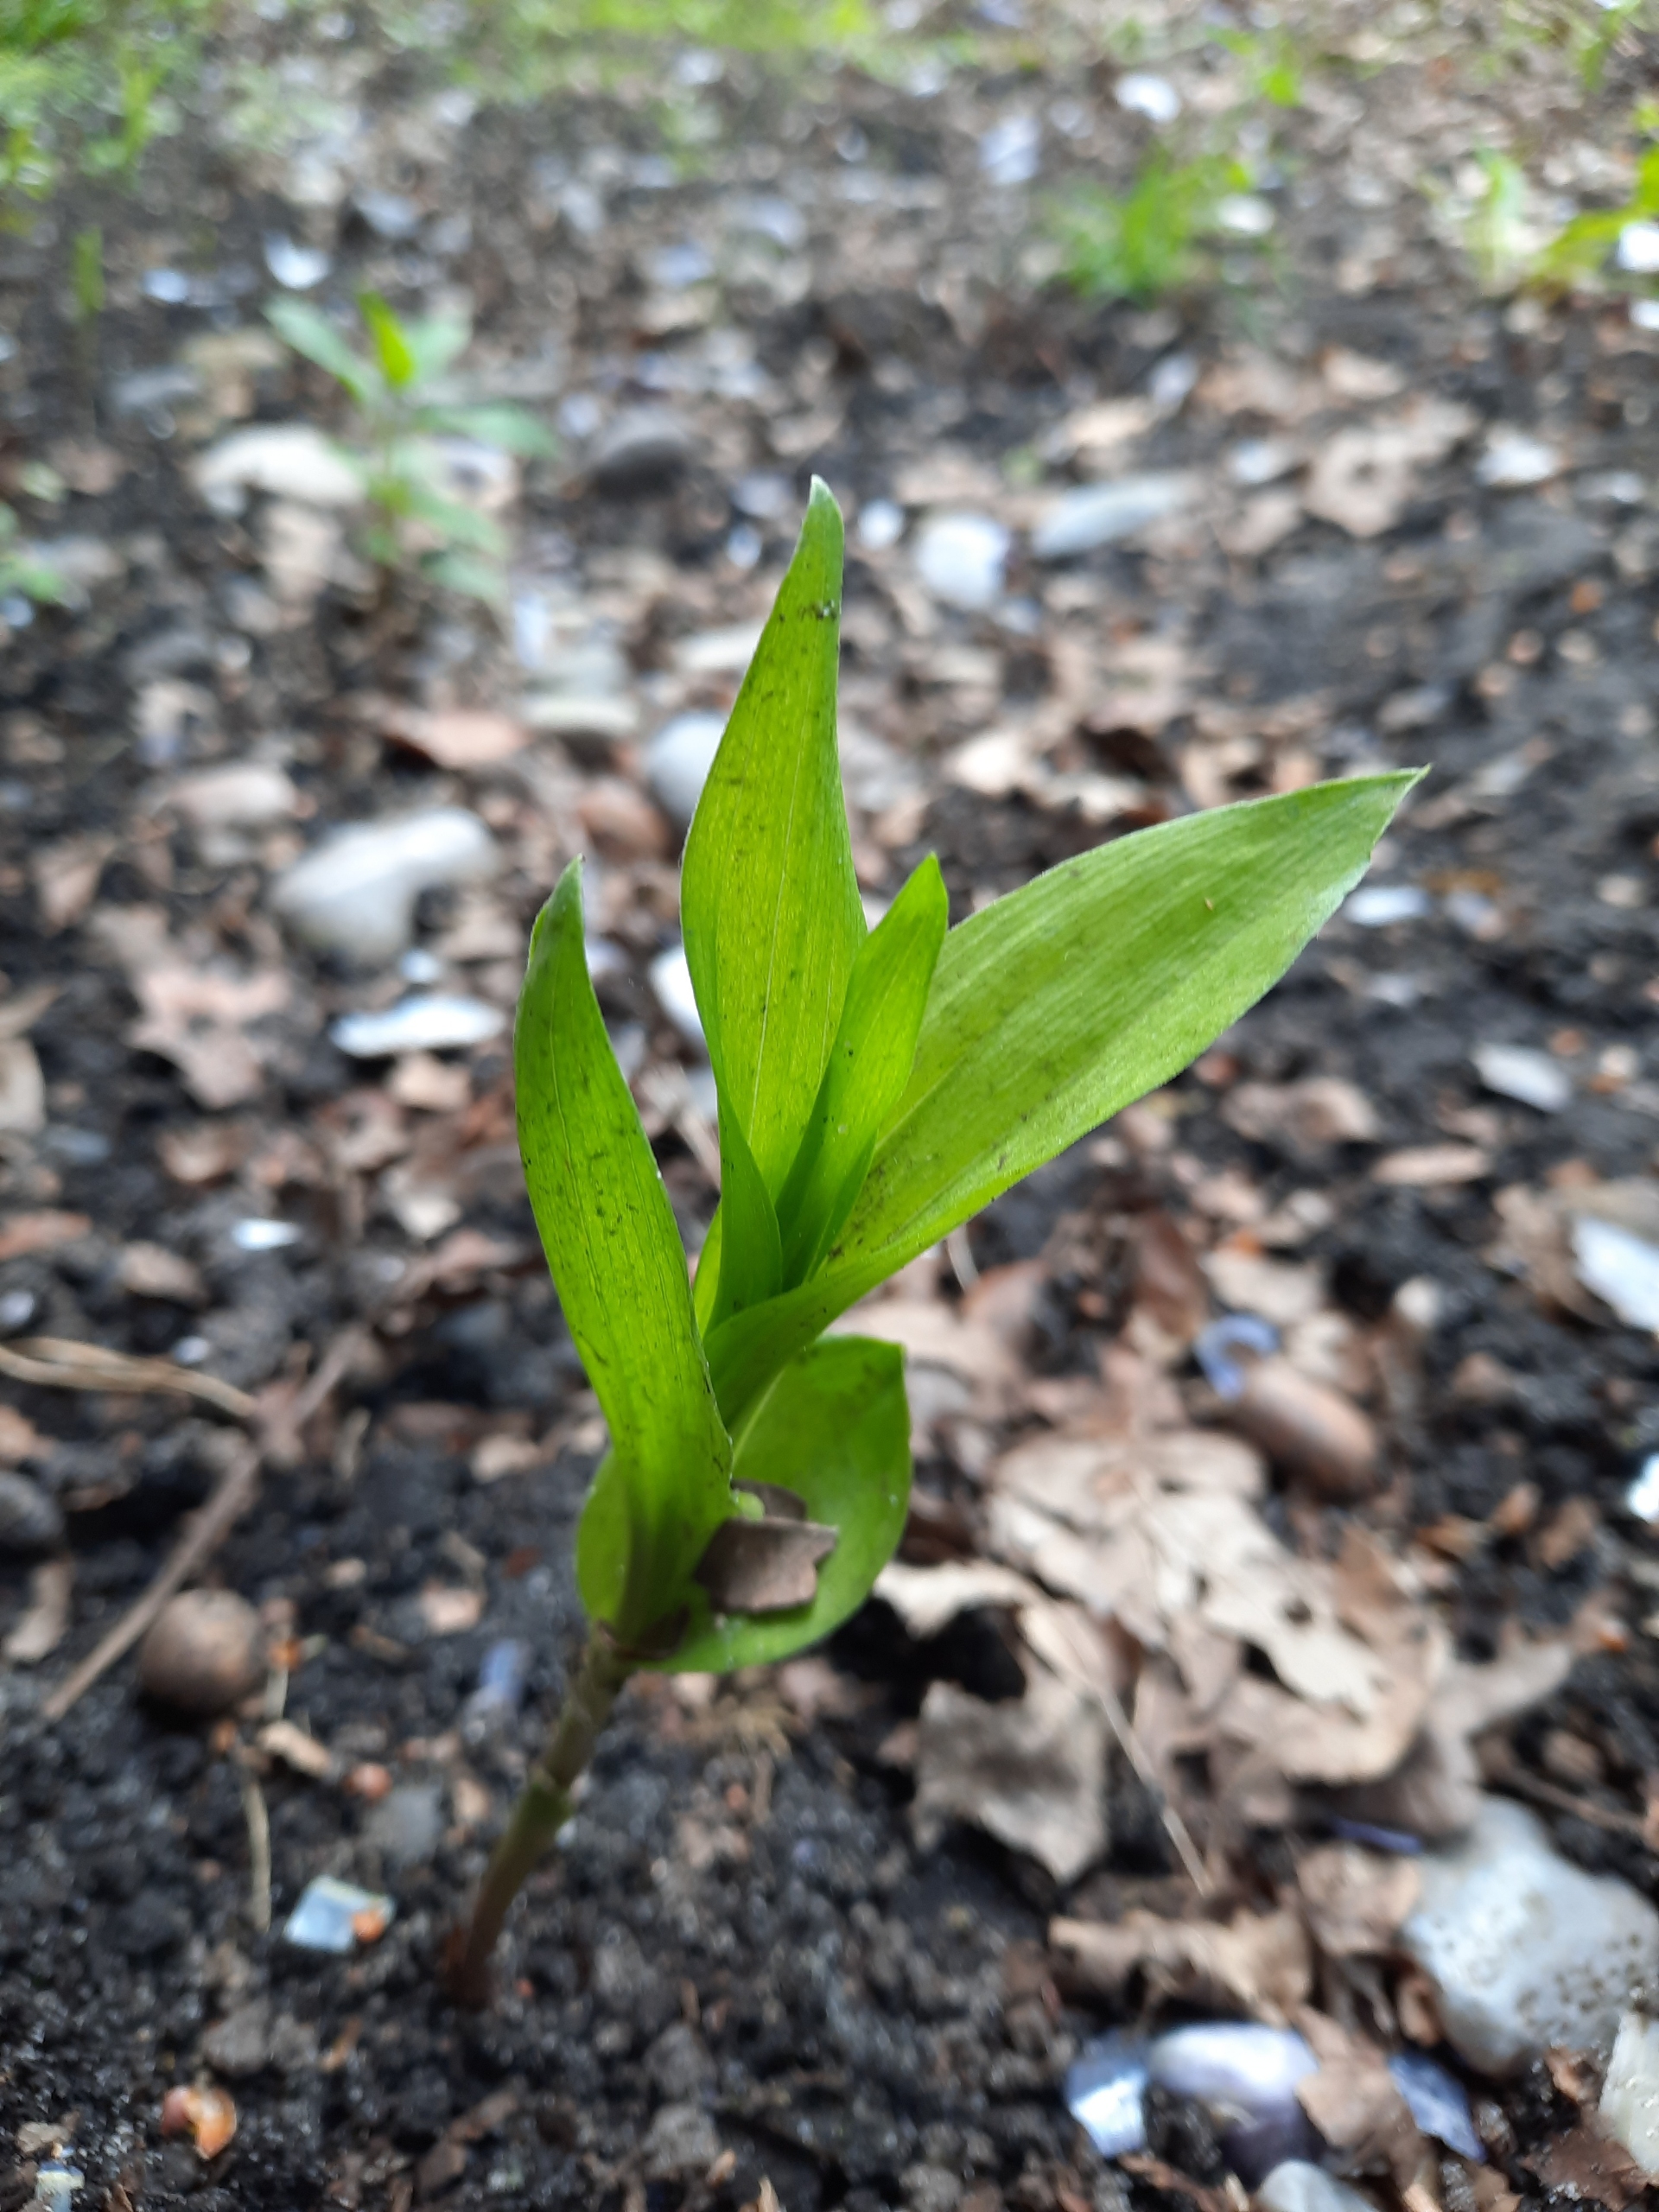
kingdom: Plantae
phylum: Tracheophyta
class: Liliopsida
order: Asparagales
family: Orchidaceae
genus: Epipactis
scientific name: Epipactis helleborine
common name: Skov-hullæbe
